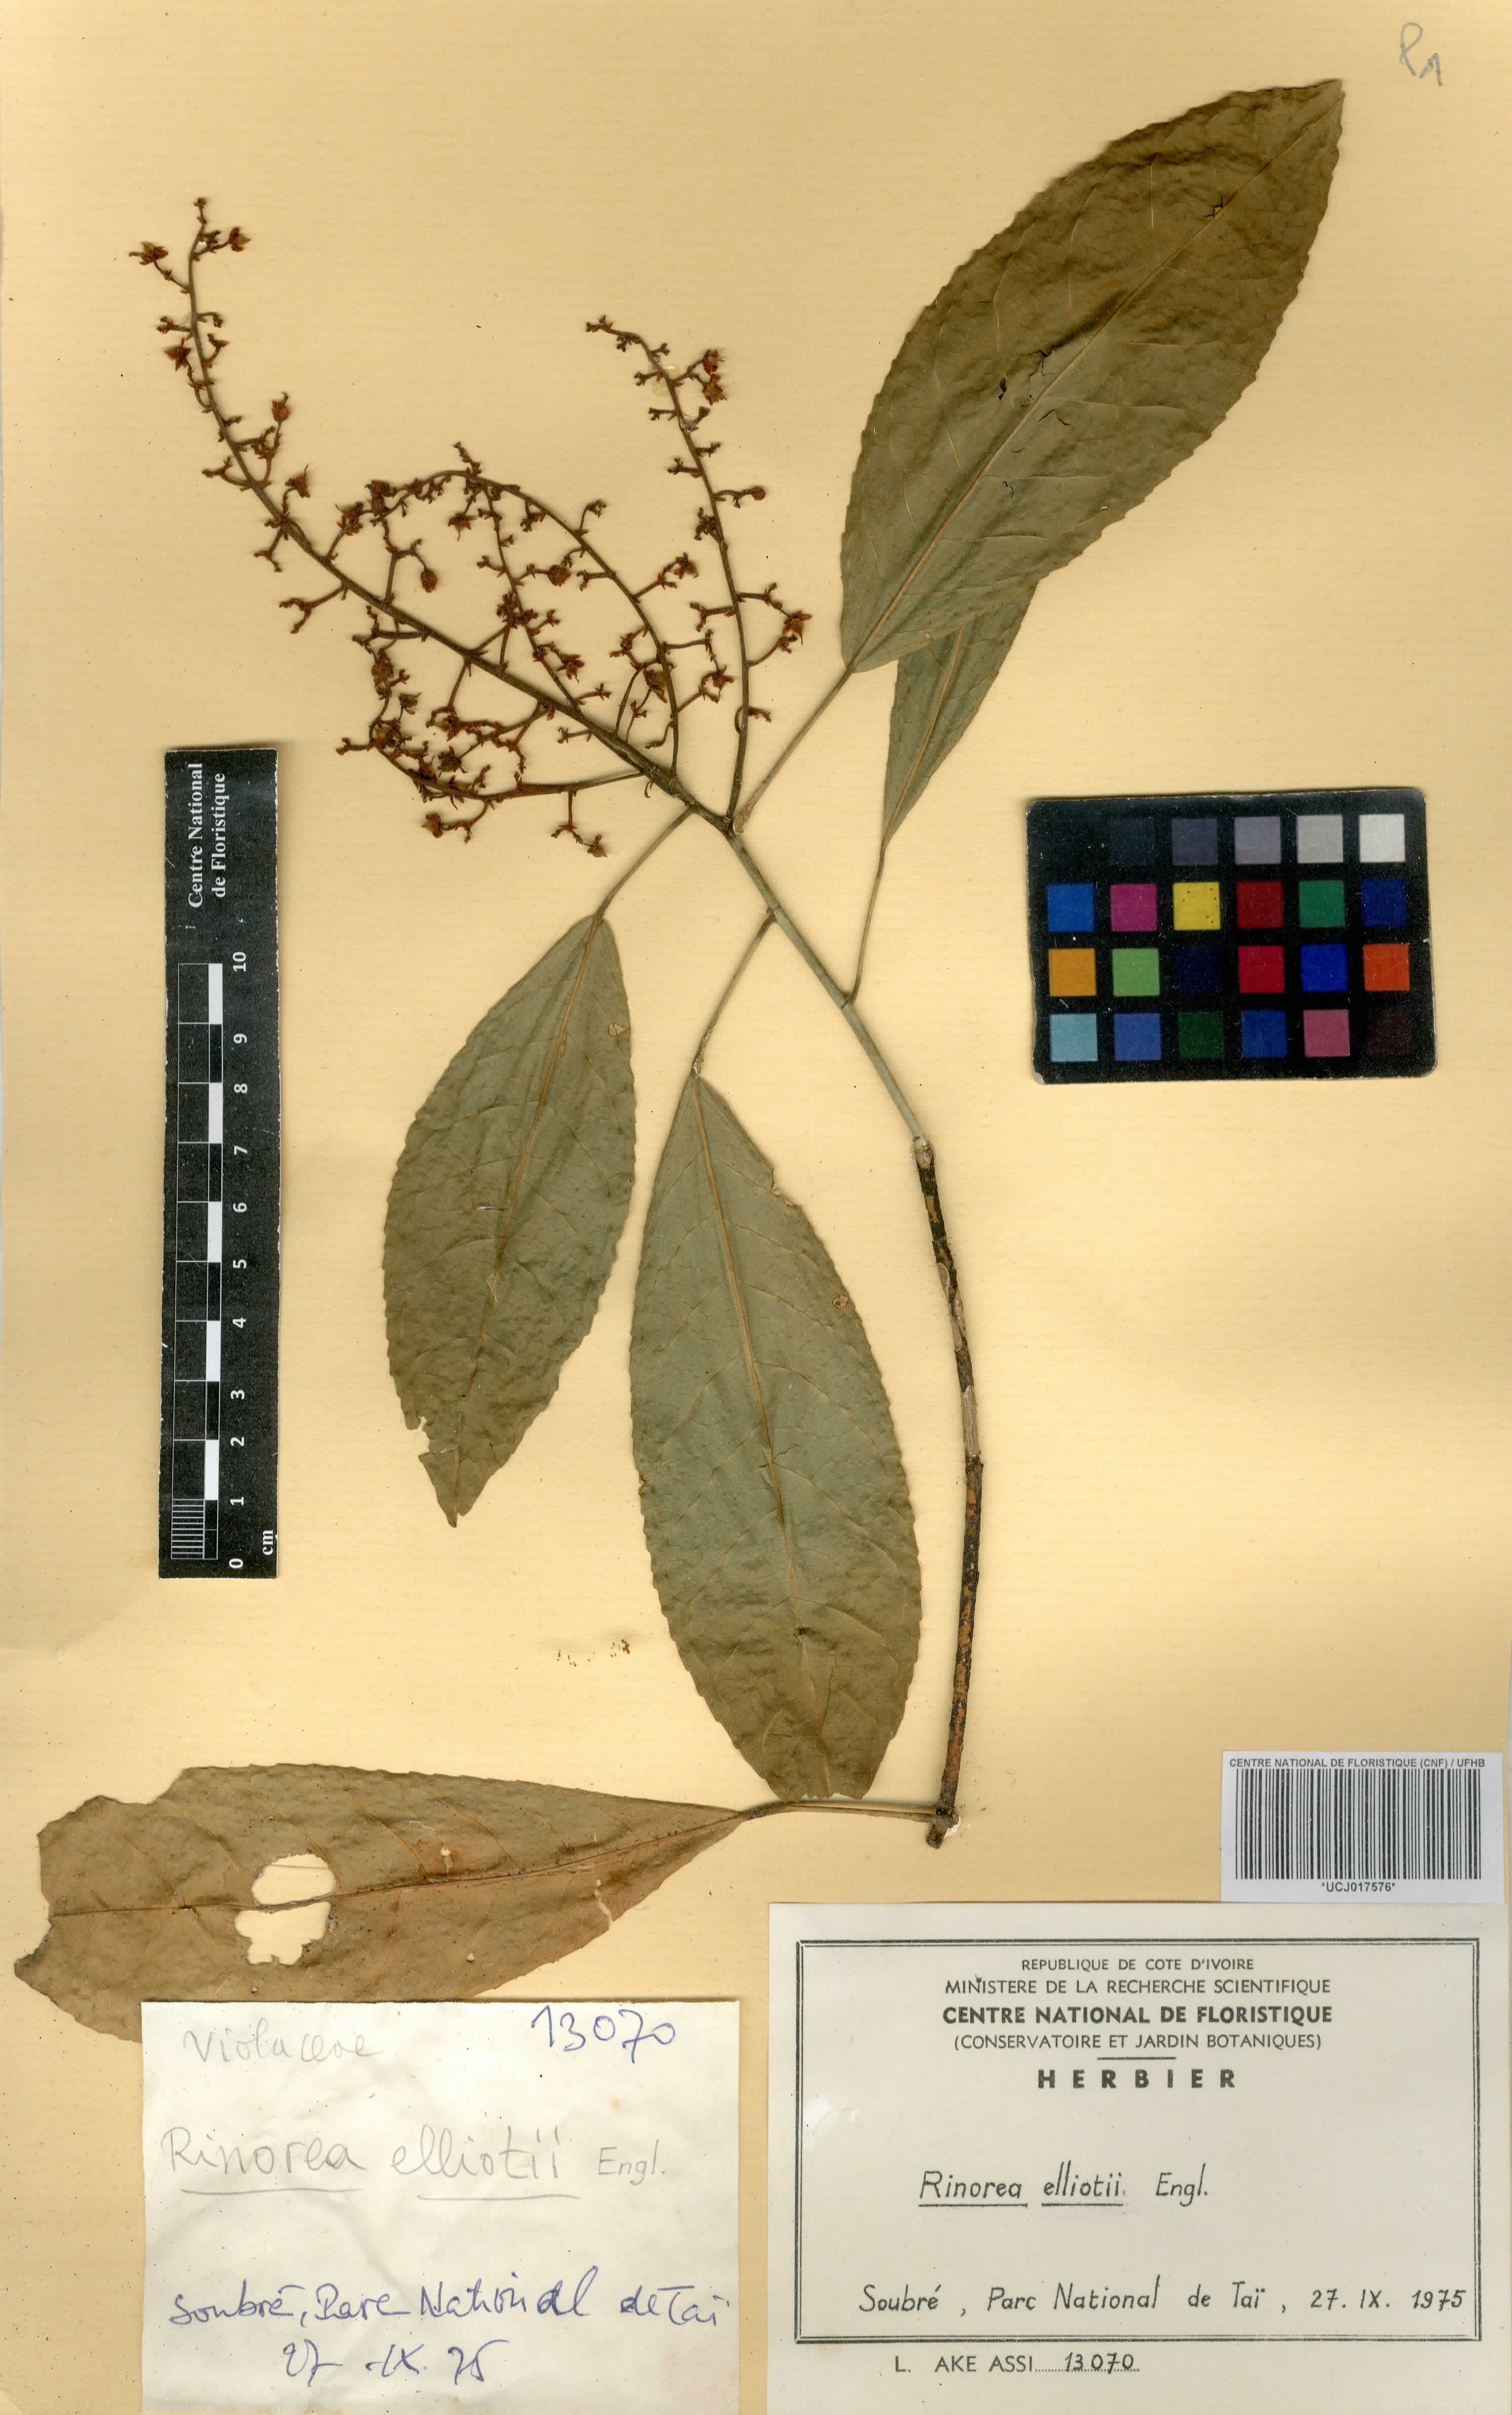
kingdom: Plantae
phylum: Tracheophyta
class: Magnoliopsida
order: Malpighiales
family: Violaceae
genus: Rinorea
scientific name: Rinorea welwitschii
